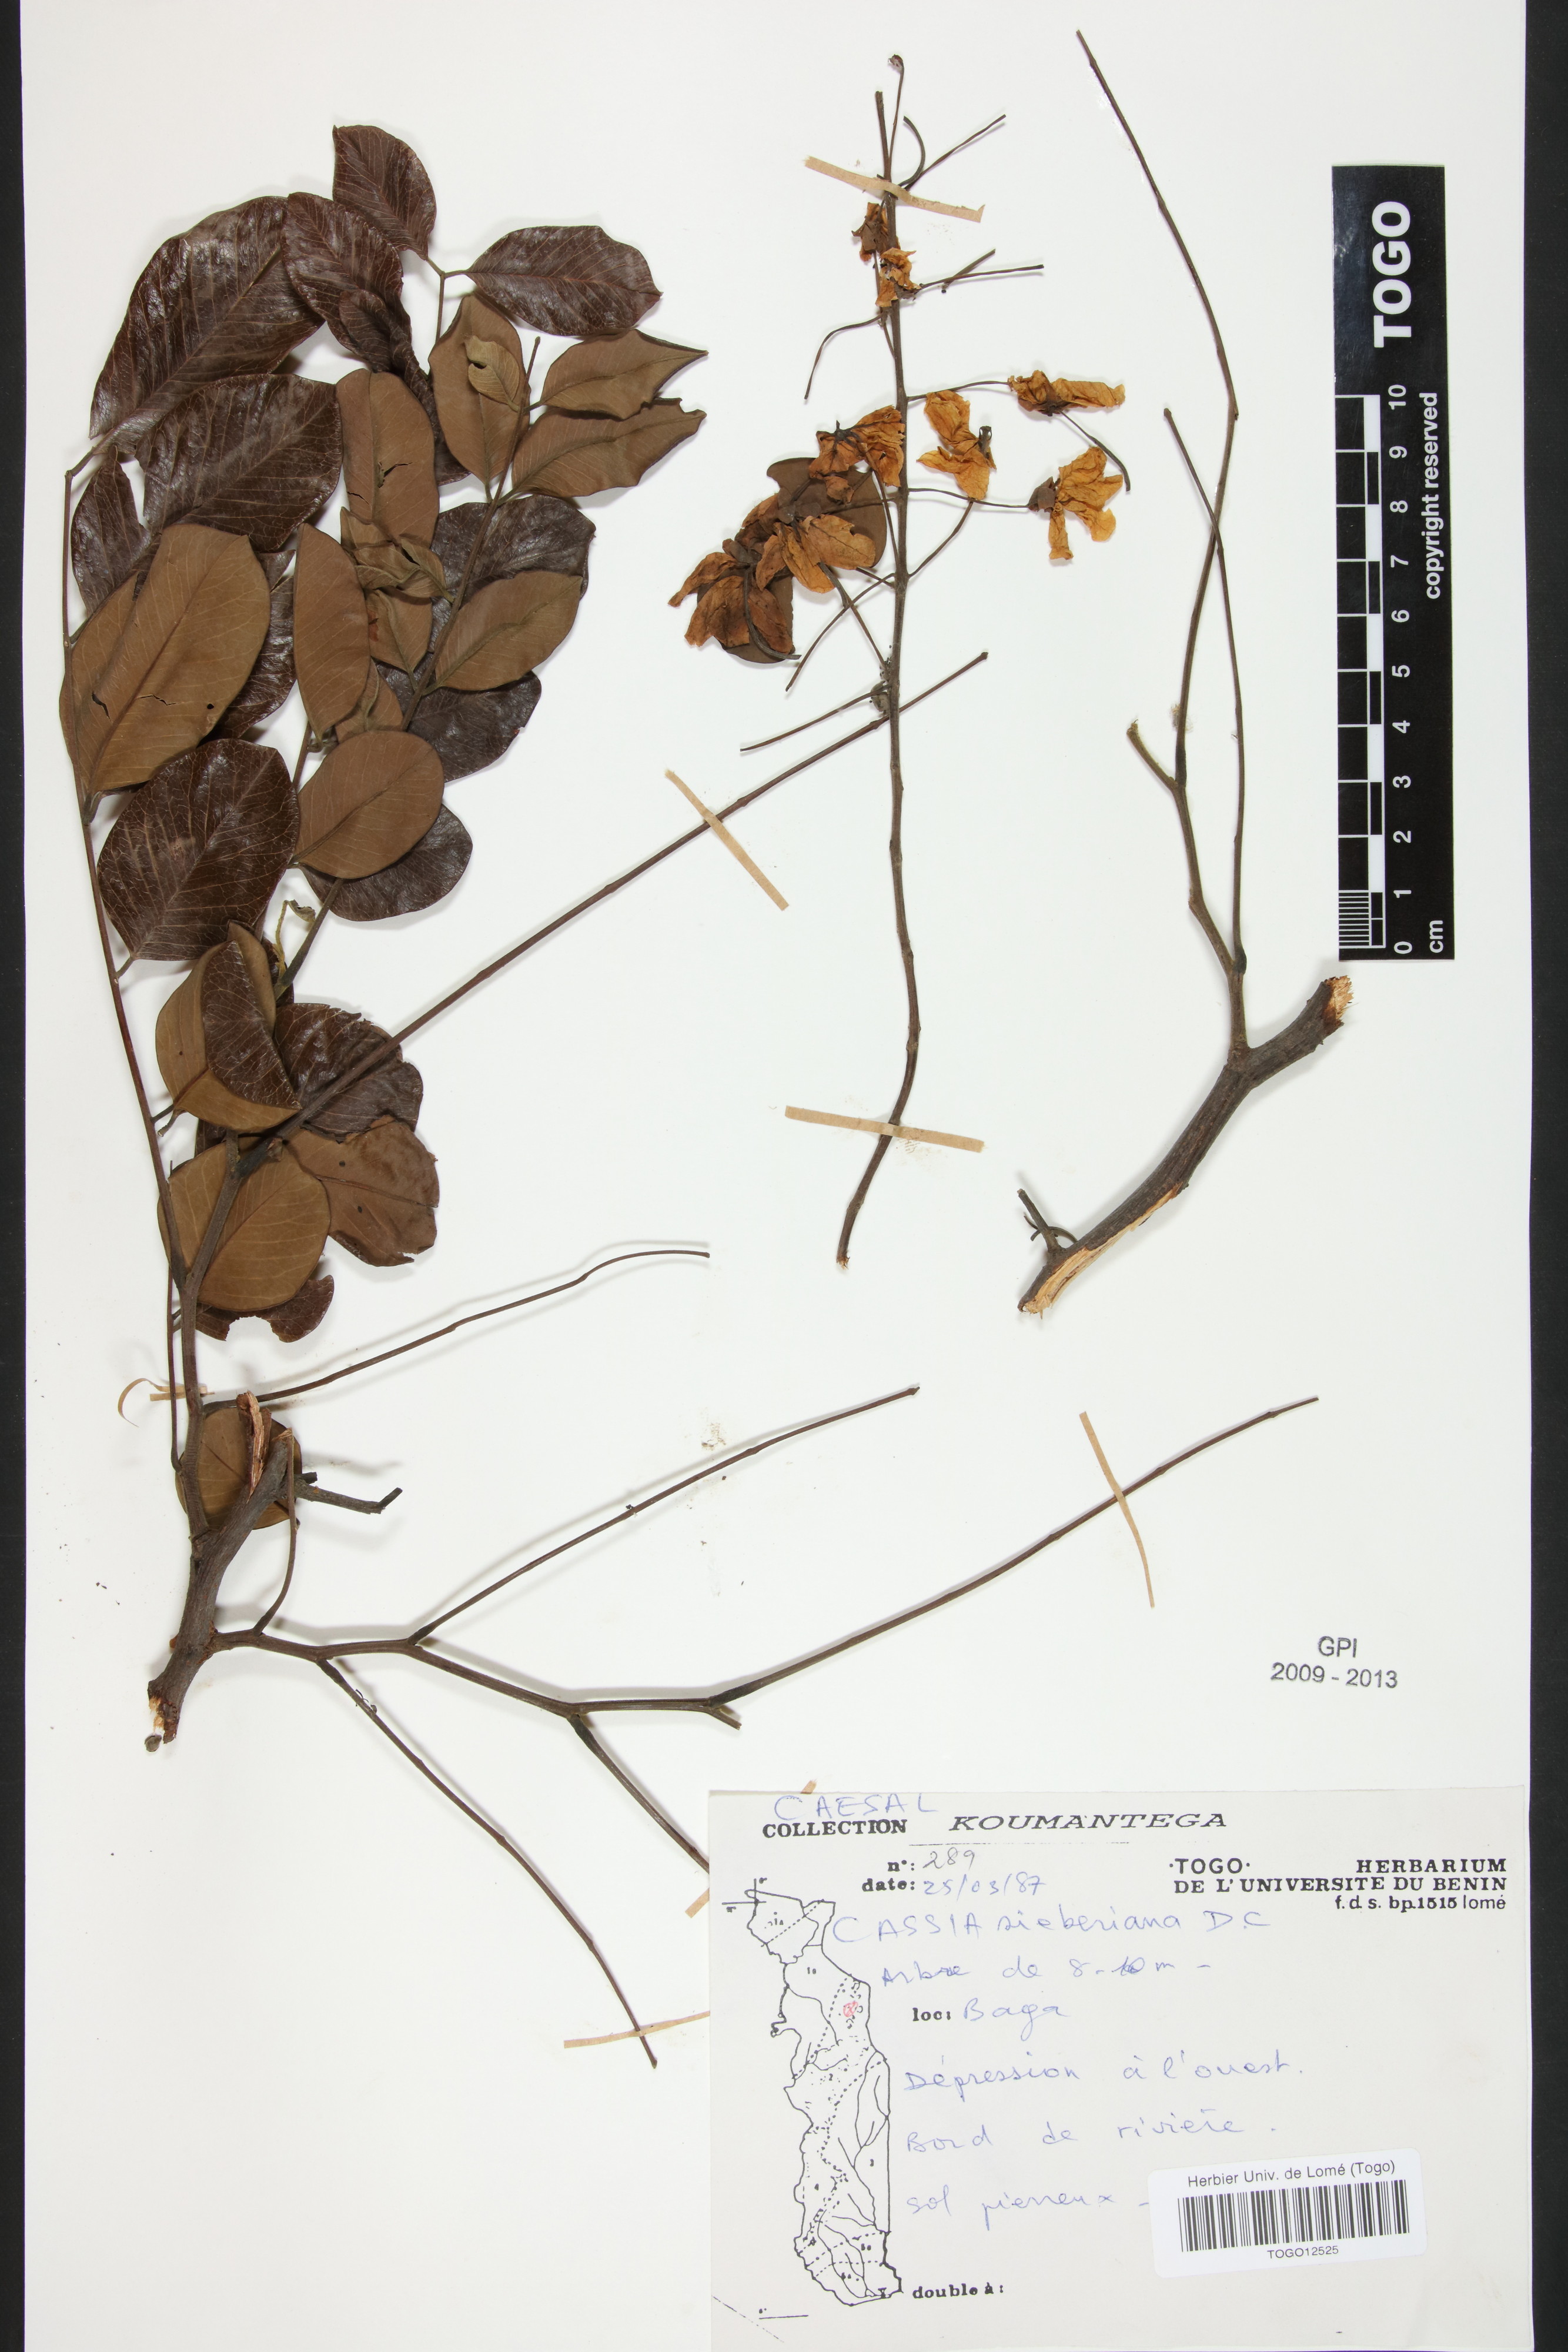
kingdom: Plantae
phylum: Tracheophyta
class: Magnoliopsida
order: Fabales
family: Fabaceae
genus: Cassia
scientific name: Cassia sieberiana
